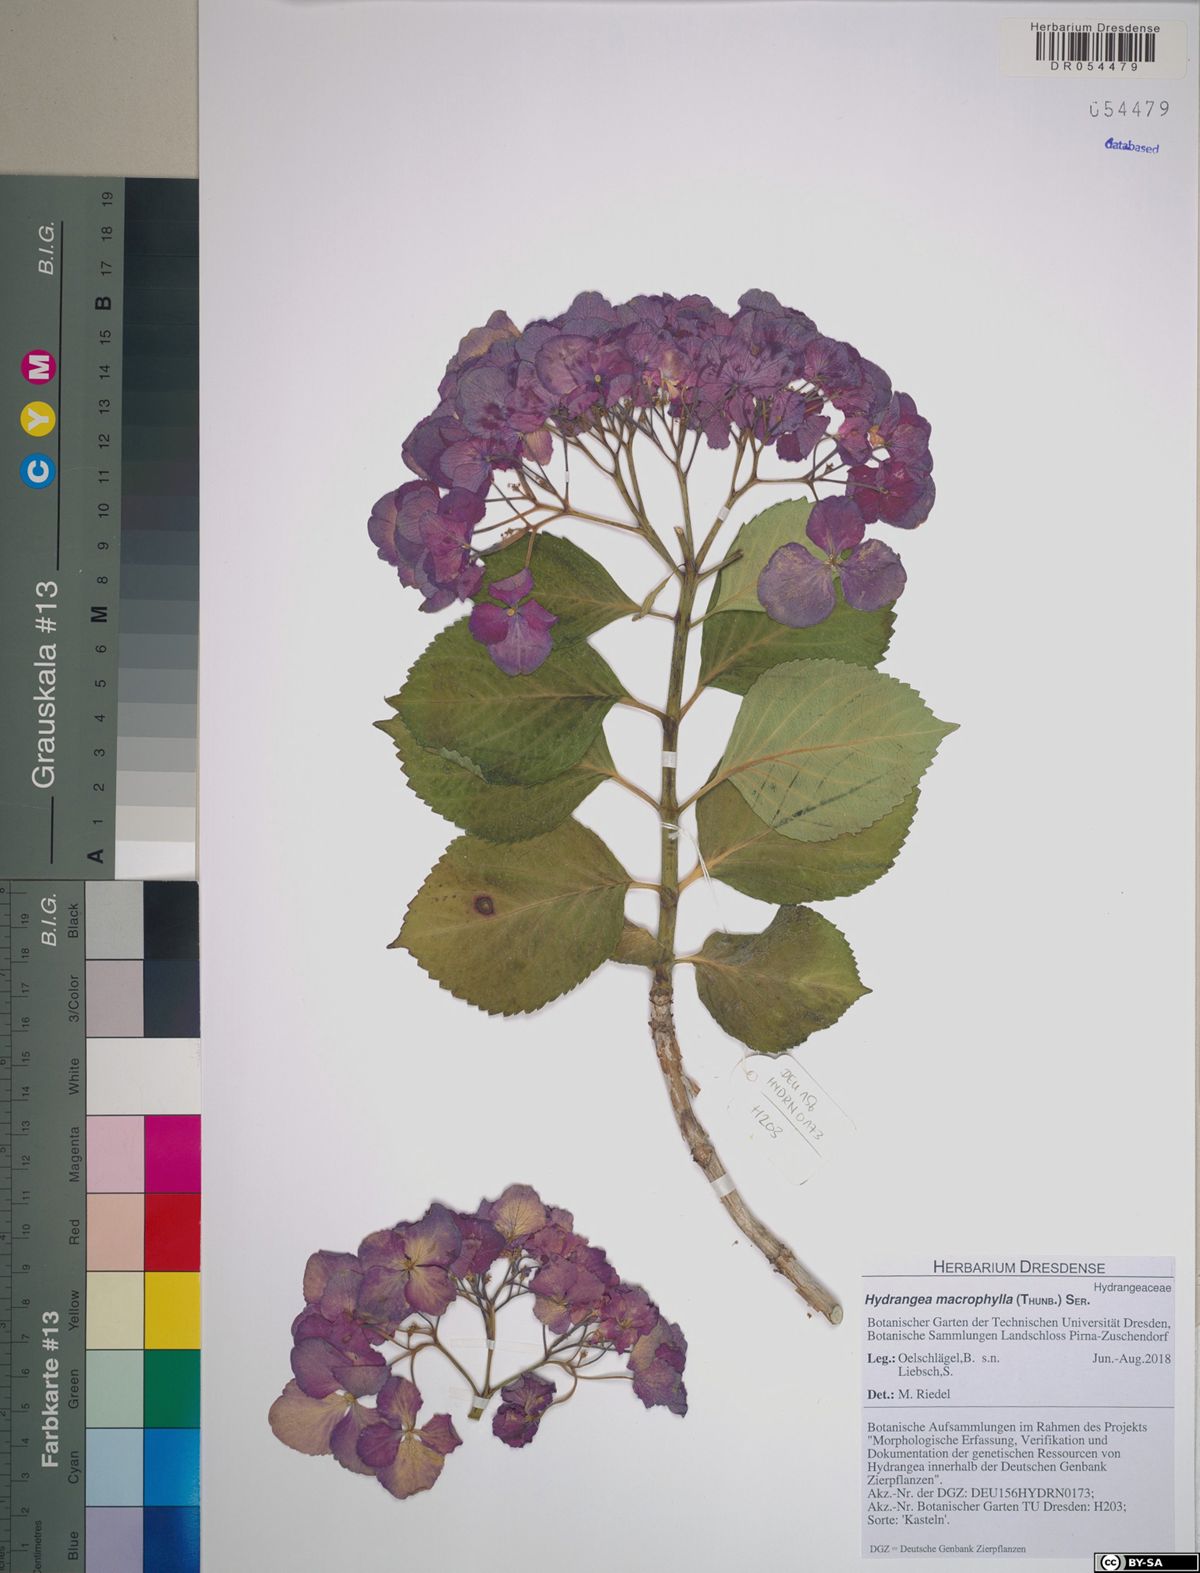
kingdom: Plantae
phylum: Tracheophyta
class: Magnoliopsida
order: Cornales
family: Hydrangeaceae
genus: Hydrangea
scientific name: Hydrangea macrophylla
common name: Hydrangea
